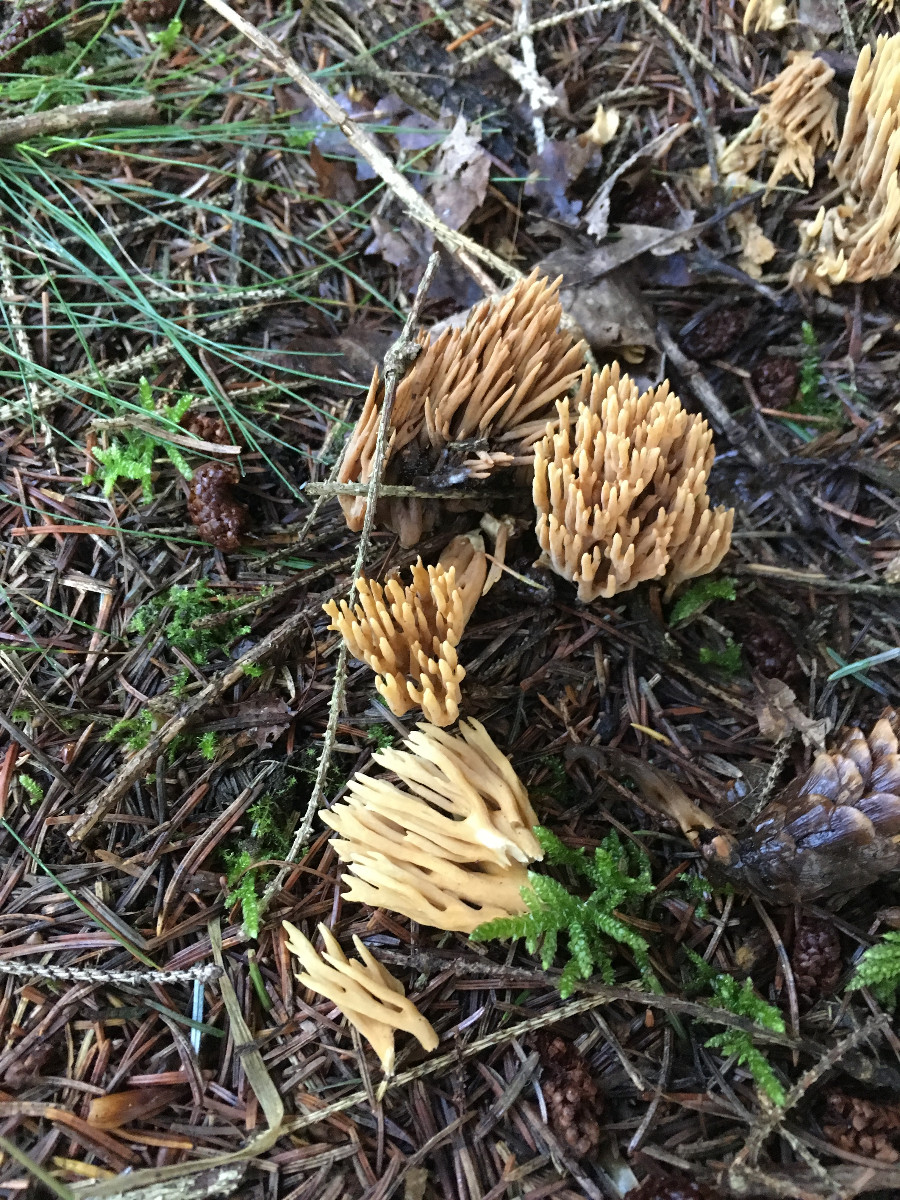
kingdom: Fungi
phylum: Basidiomycota
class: Agaricomycetes
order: Gomphales
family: Gomphaceae
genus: Phaeoclavulina
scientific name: Phaeoclavulina eumorpha
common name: gran-koralsvamp
